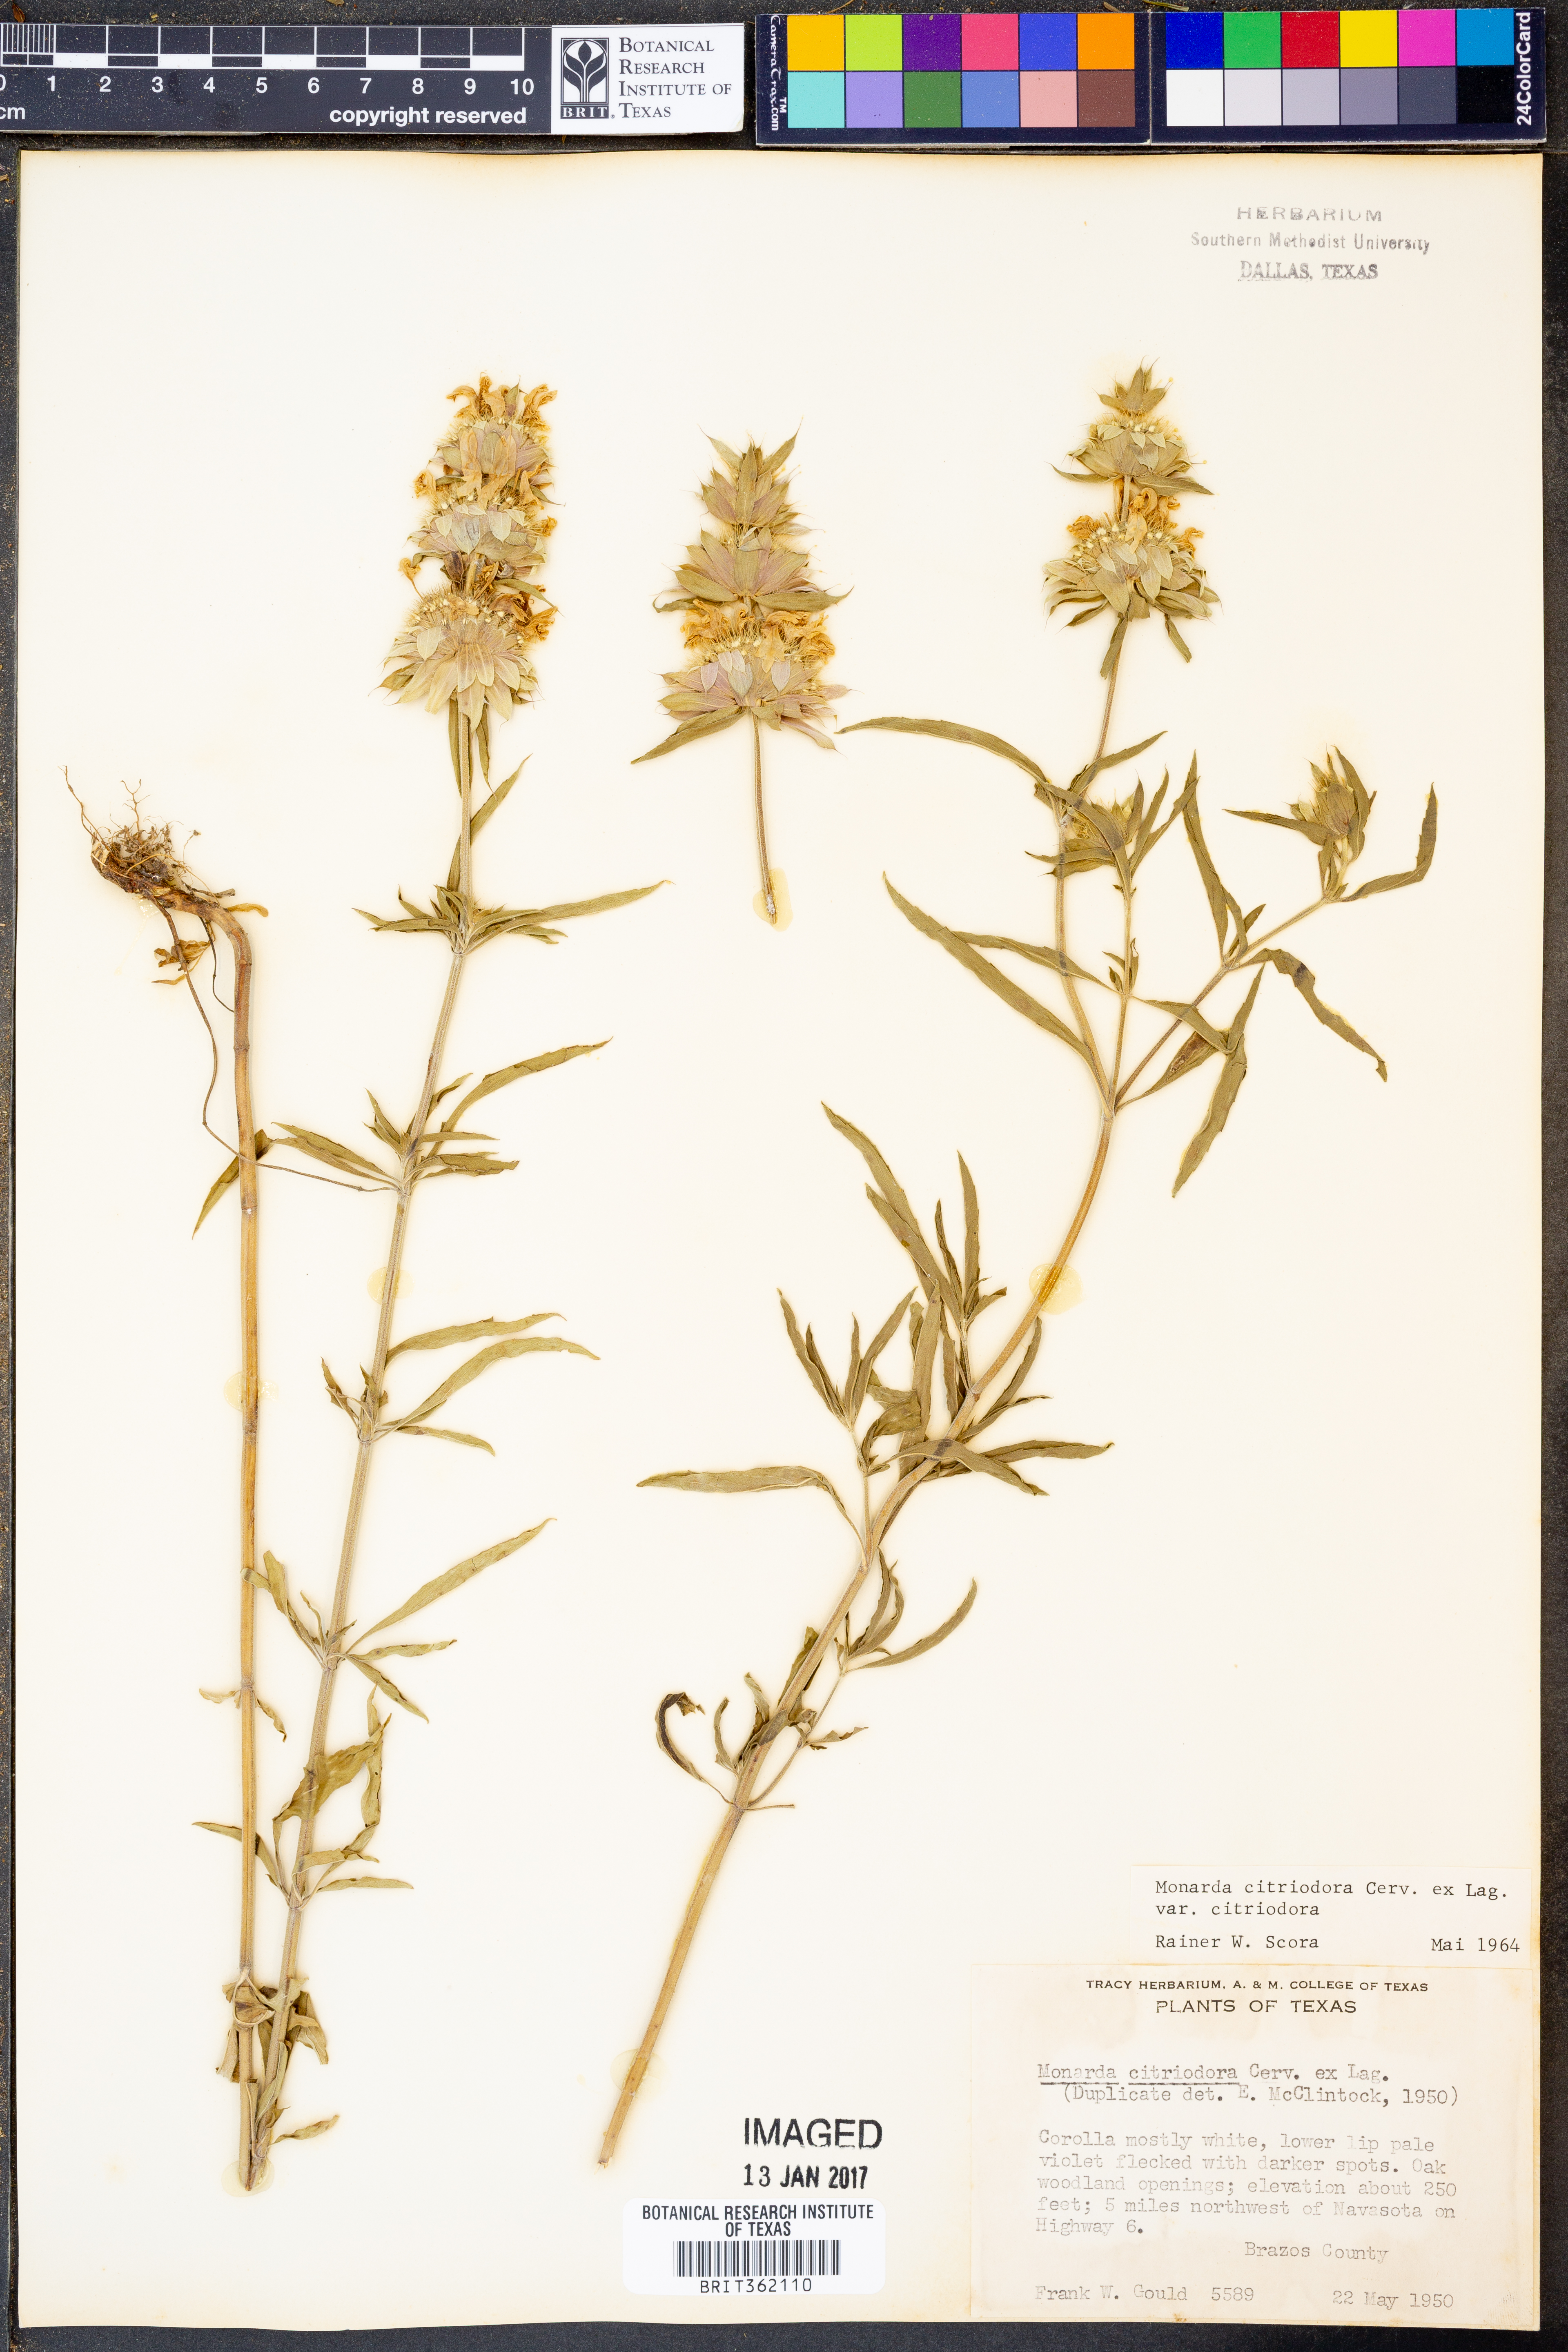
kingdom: Plantae
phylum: Tracheophyta
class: Magnoliopsida
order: Lamiales
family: Lamiaceae
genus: Monarda
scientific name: Monarda citriodora
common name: Lemon beebalm
